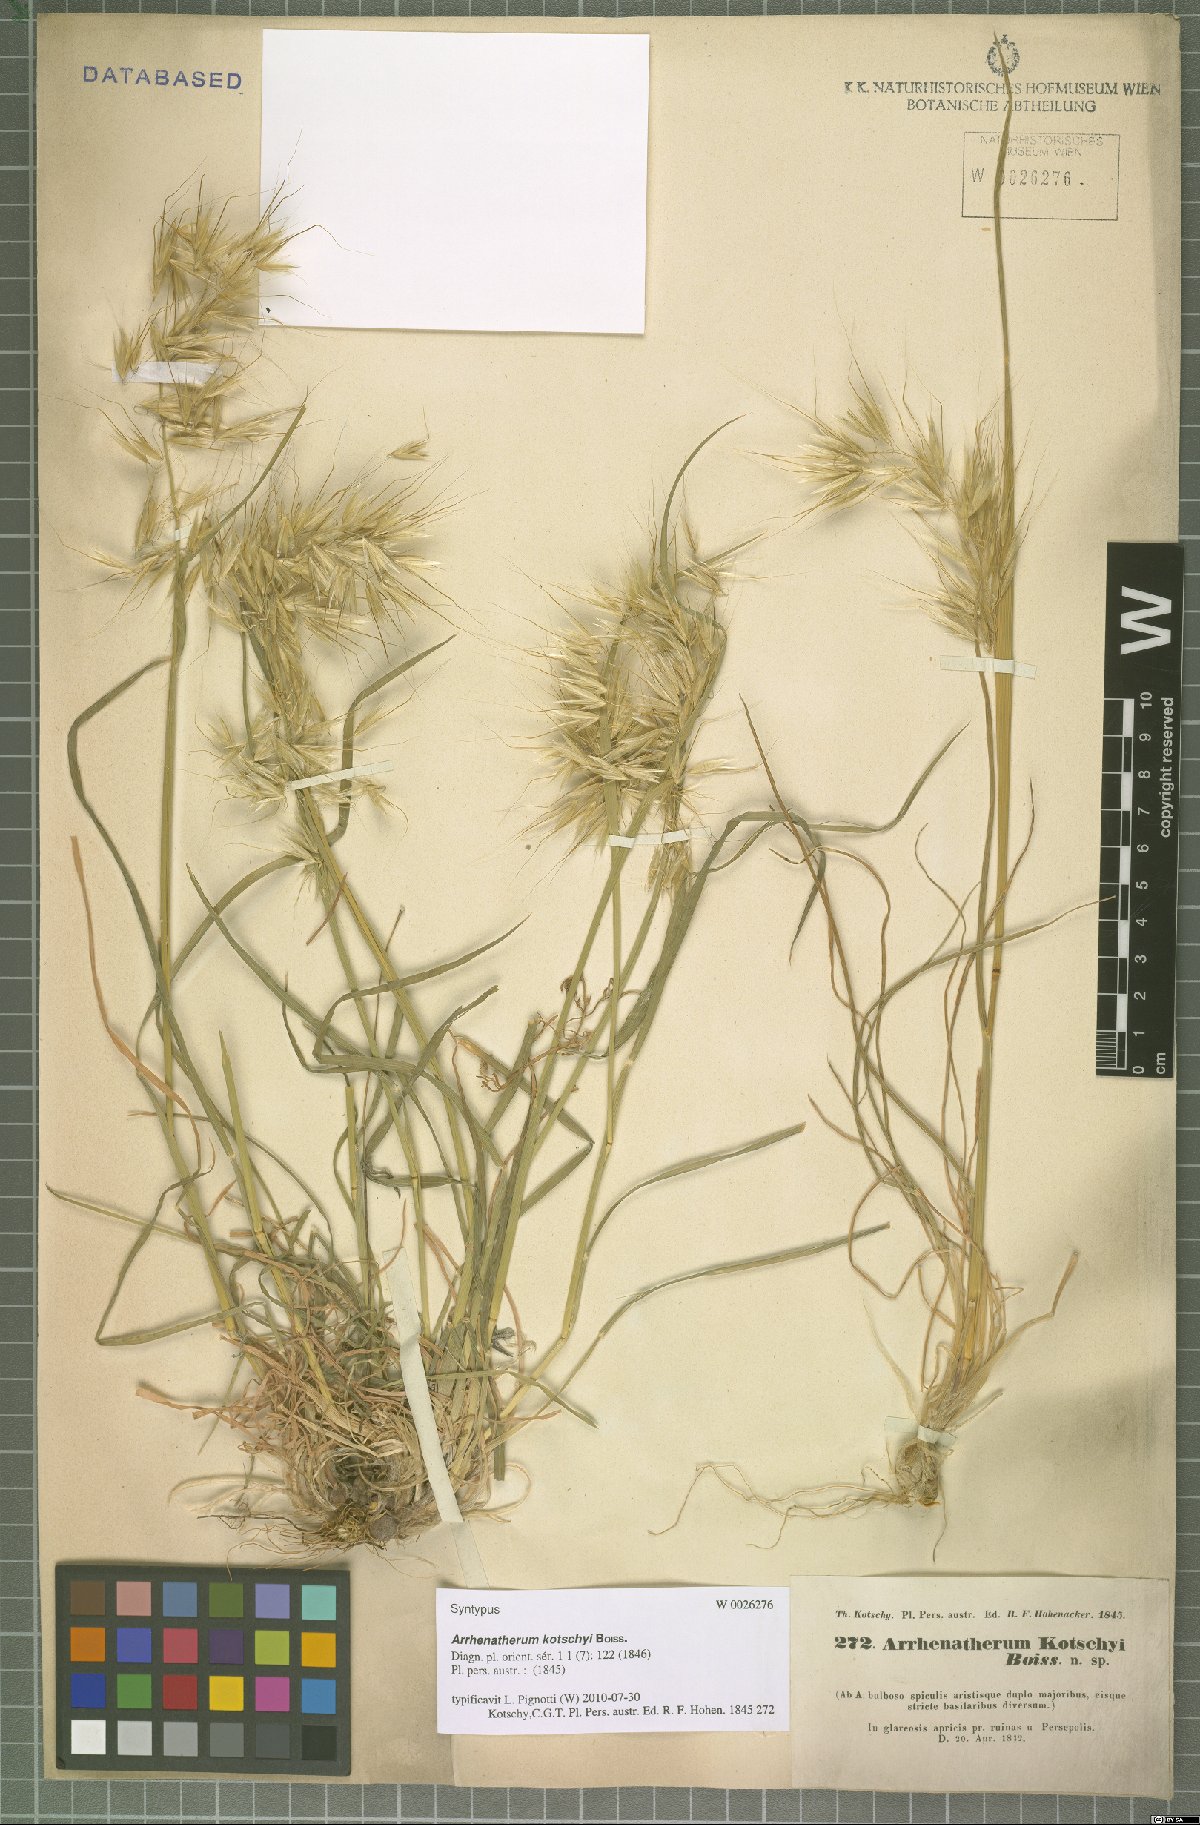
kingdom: Plantae
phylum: Tracheophyta
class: Liliopsida
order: Poales
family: Poaceae
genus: Arrhenatherum
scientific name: Arrhenatherum kotschyi
